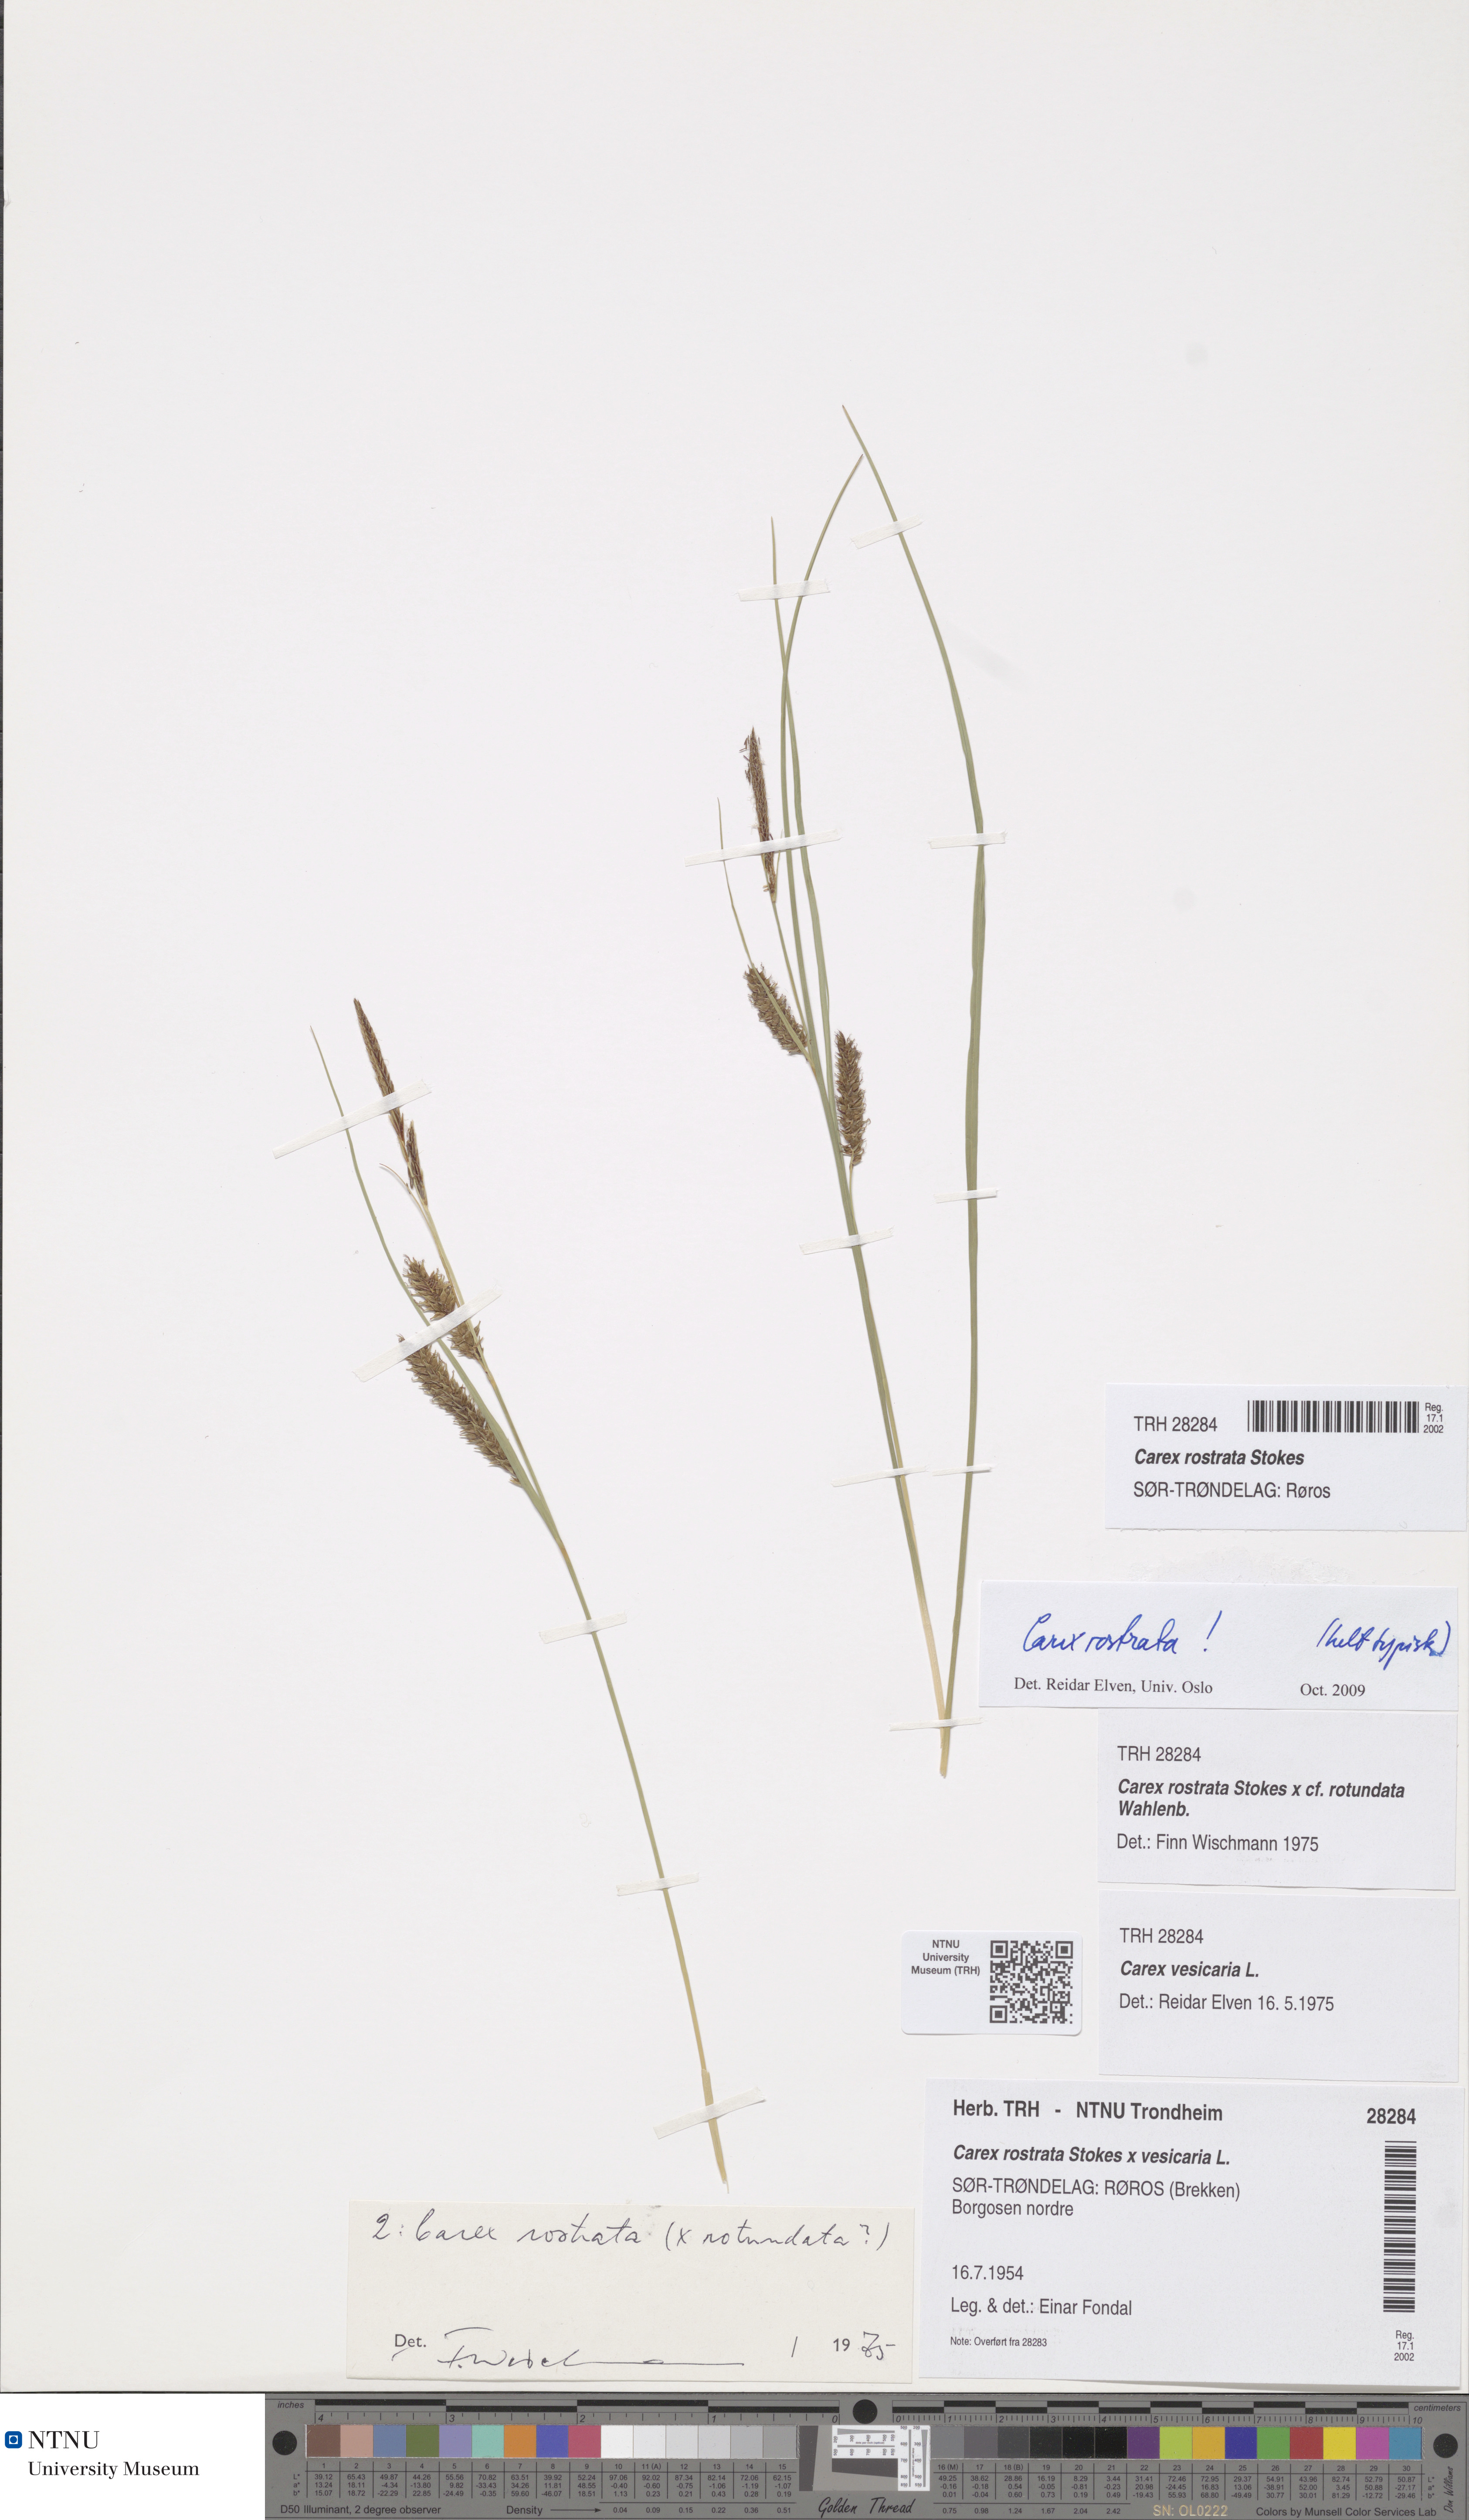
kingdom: Plantae
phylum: Tracheophyta
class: Liliopsida
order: Poales
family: Cyperaceae
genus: Carex
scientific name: Carex rostrata
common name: Bottle sedge
